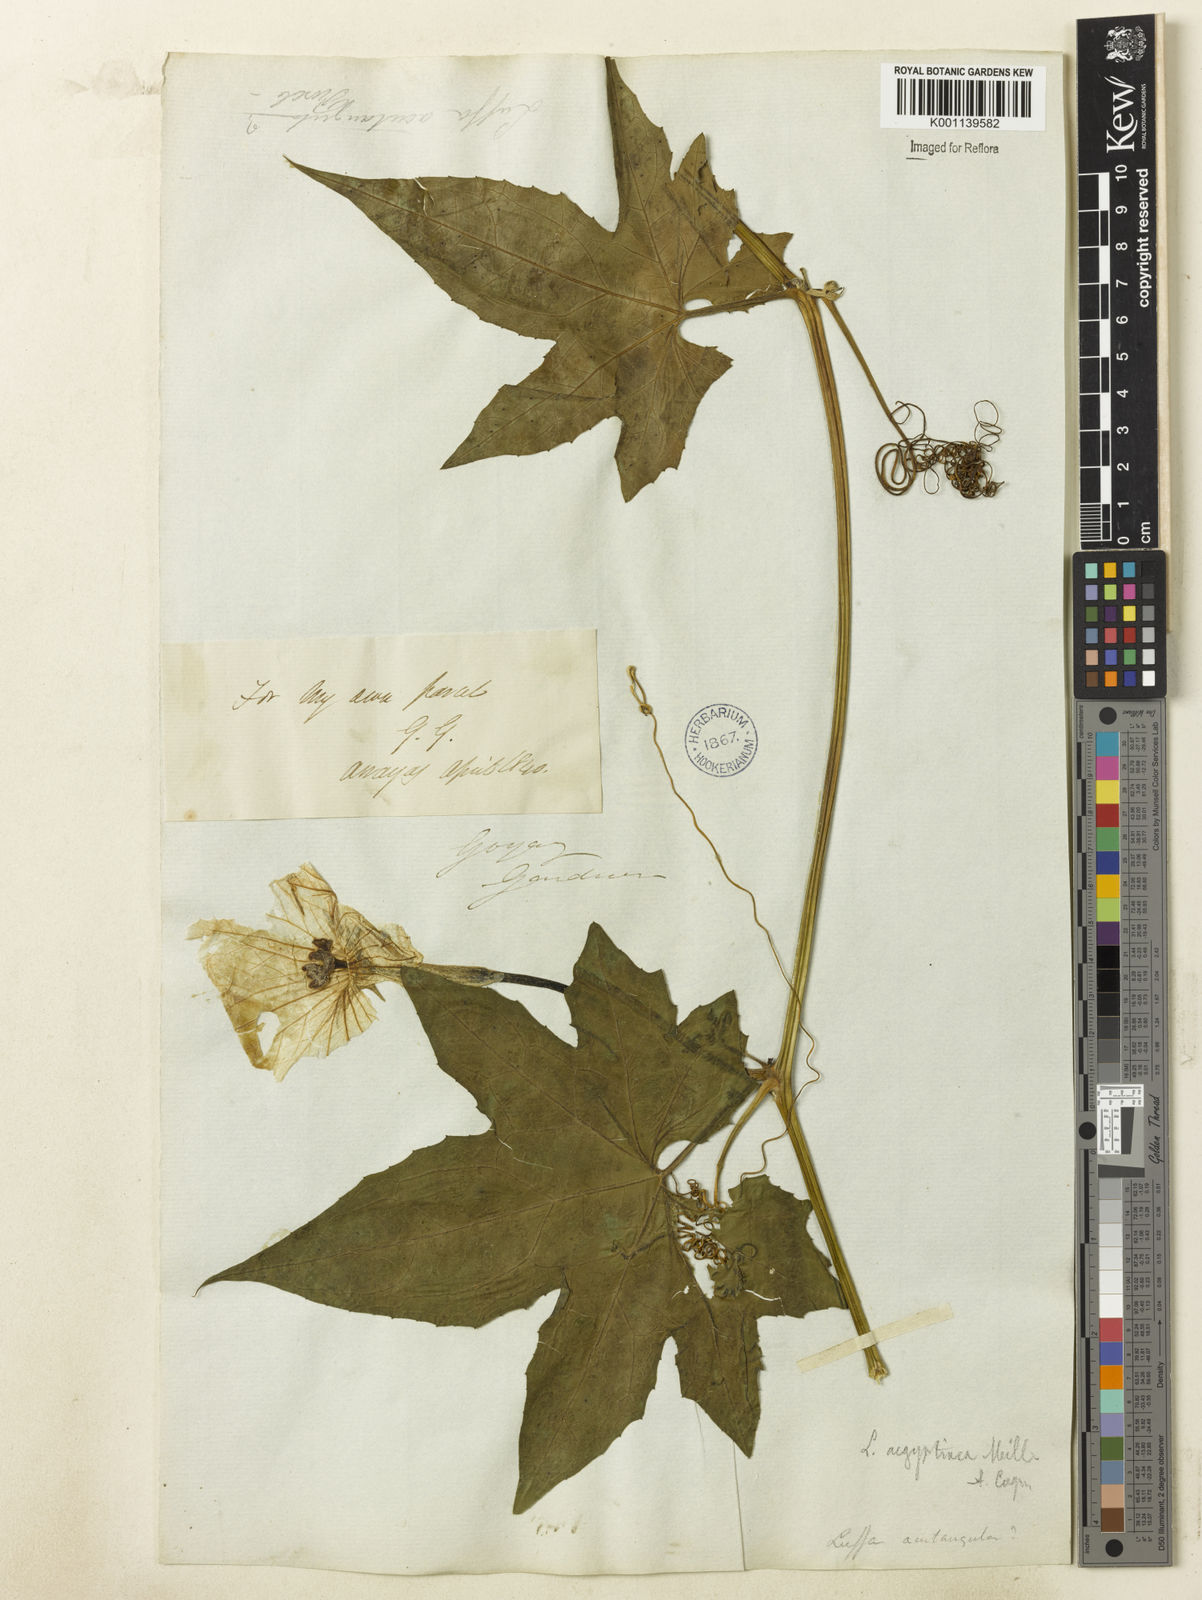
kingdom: Plantae
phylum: Tracheophyta
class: Magnoliopsida
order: Cucurbitales
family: Cucurbitaceae
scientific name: Cucurbitaceae
